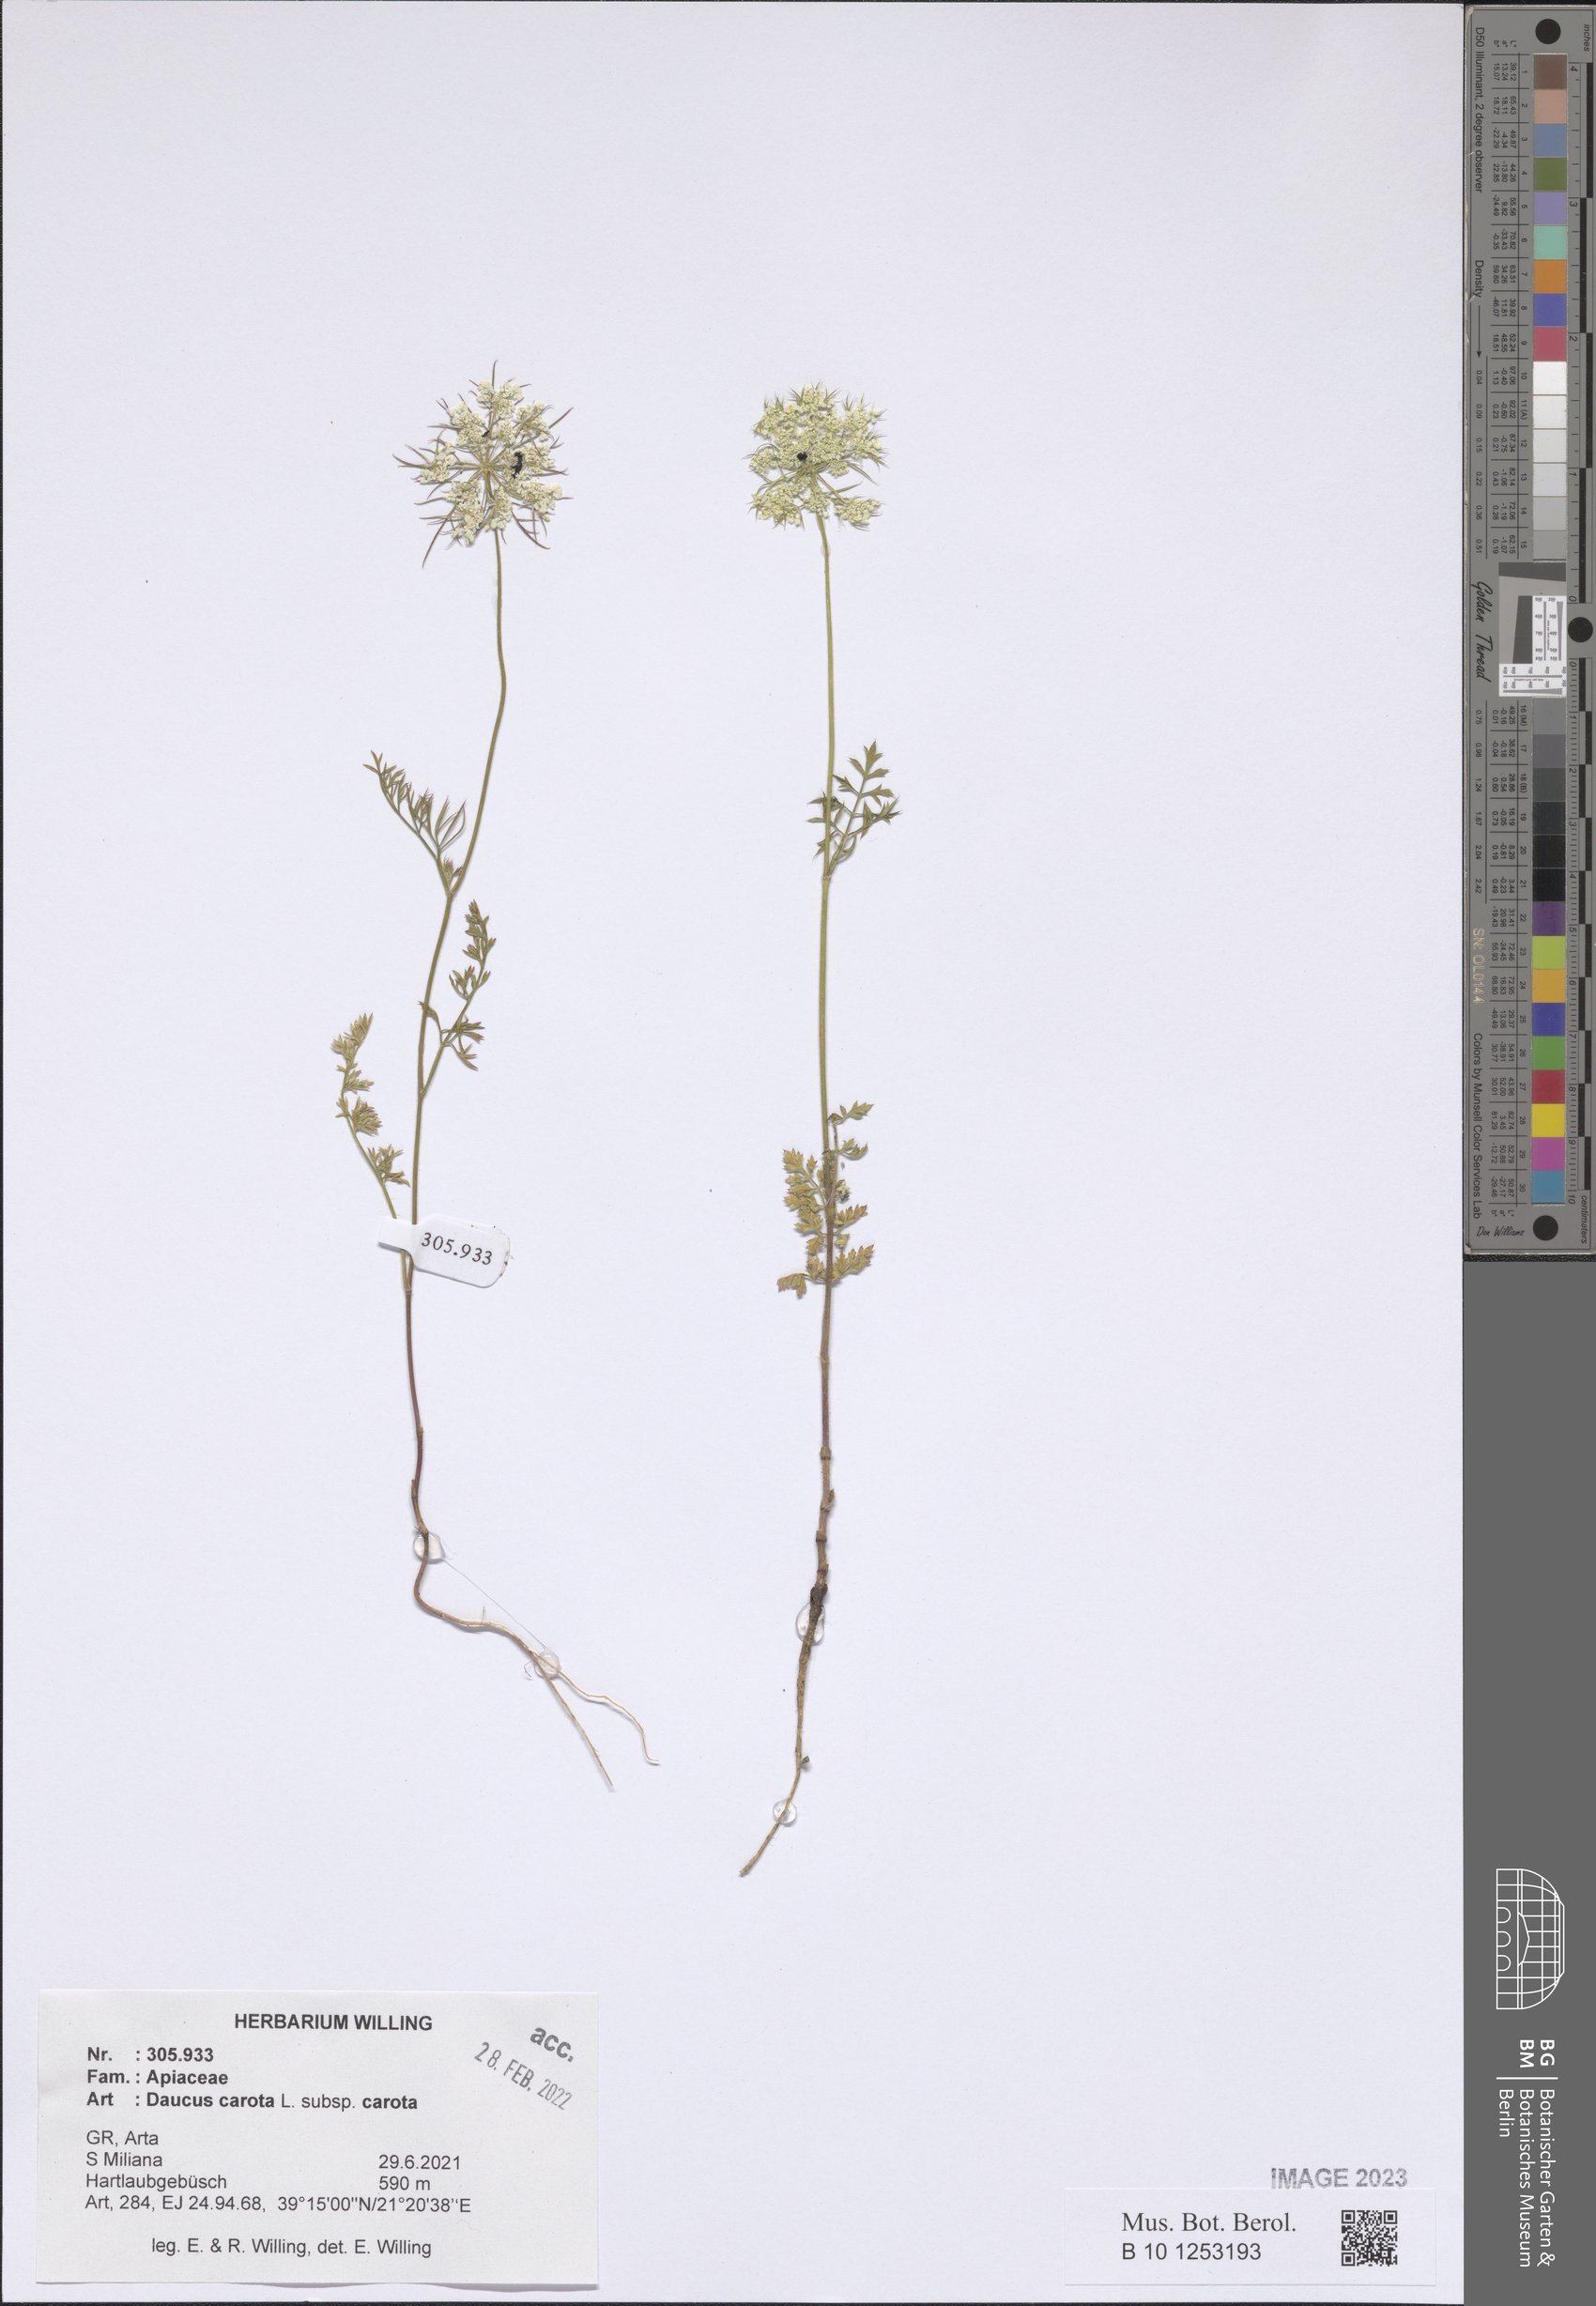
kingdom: Plantae
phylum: Tracheophyta
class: Magnoliopsida
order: Apiales
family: Apiaceae
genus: Daucus
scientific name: Daucus carota
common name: Wild carrot
